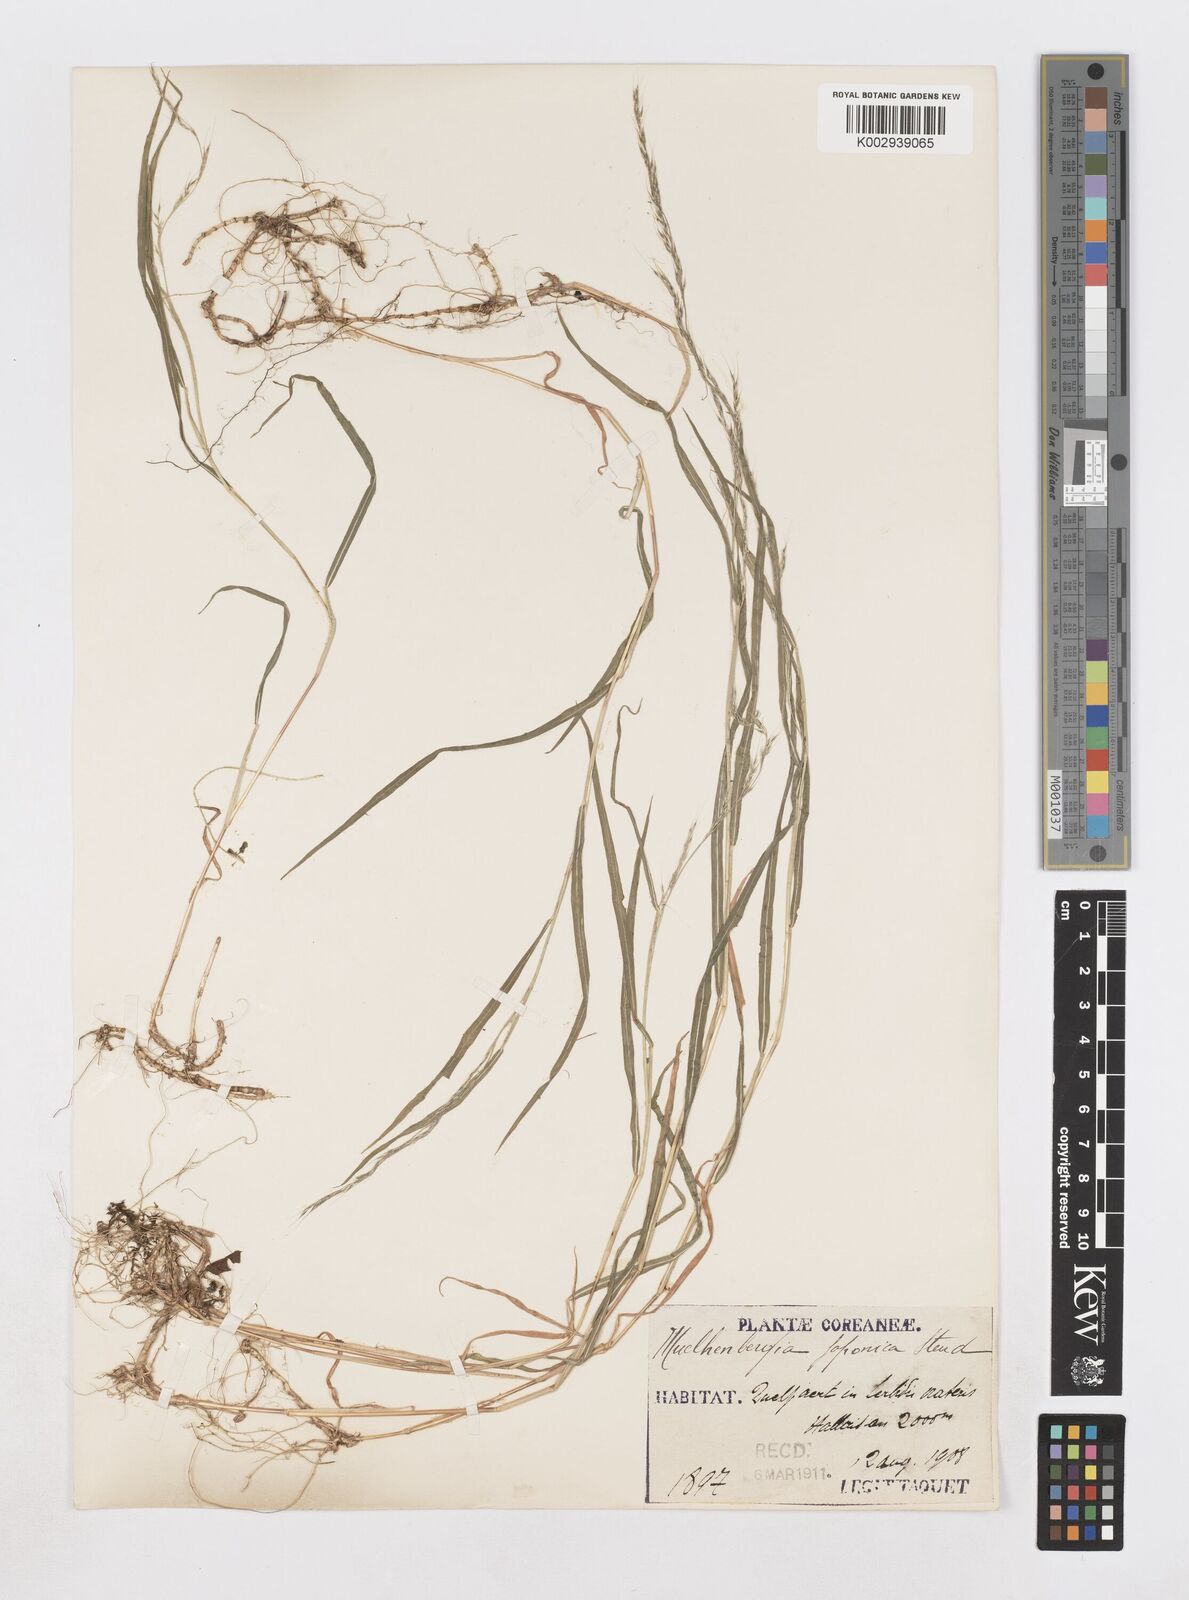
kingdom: Plantae
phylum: Tracheophyta
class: Liliopsida
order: Poales
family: Poaceae
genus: Muhlenbergia
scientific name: Muhlenbergia hakonensis
